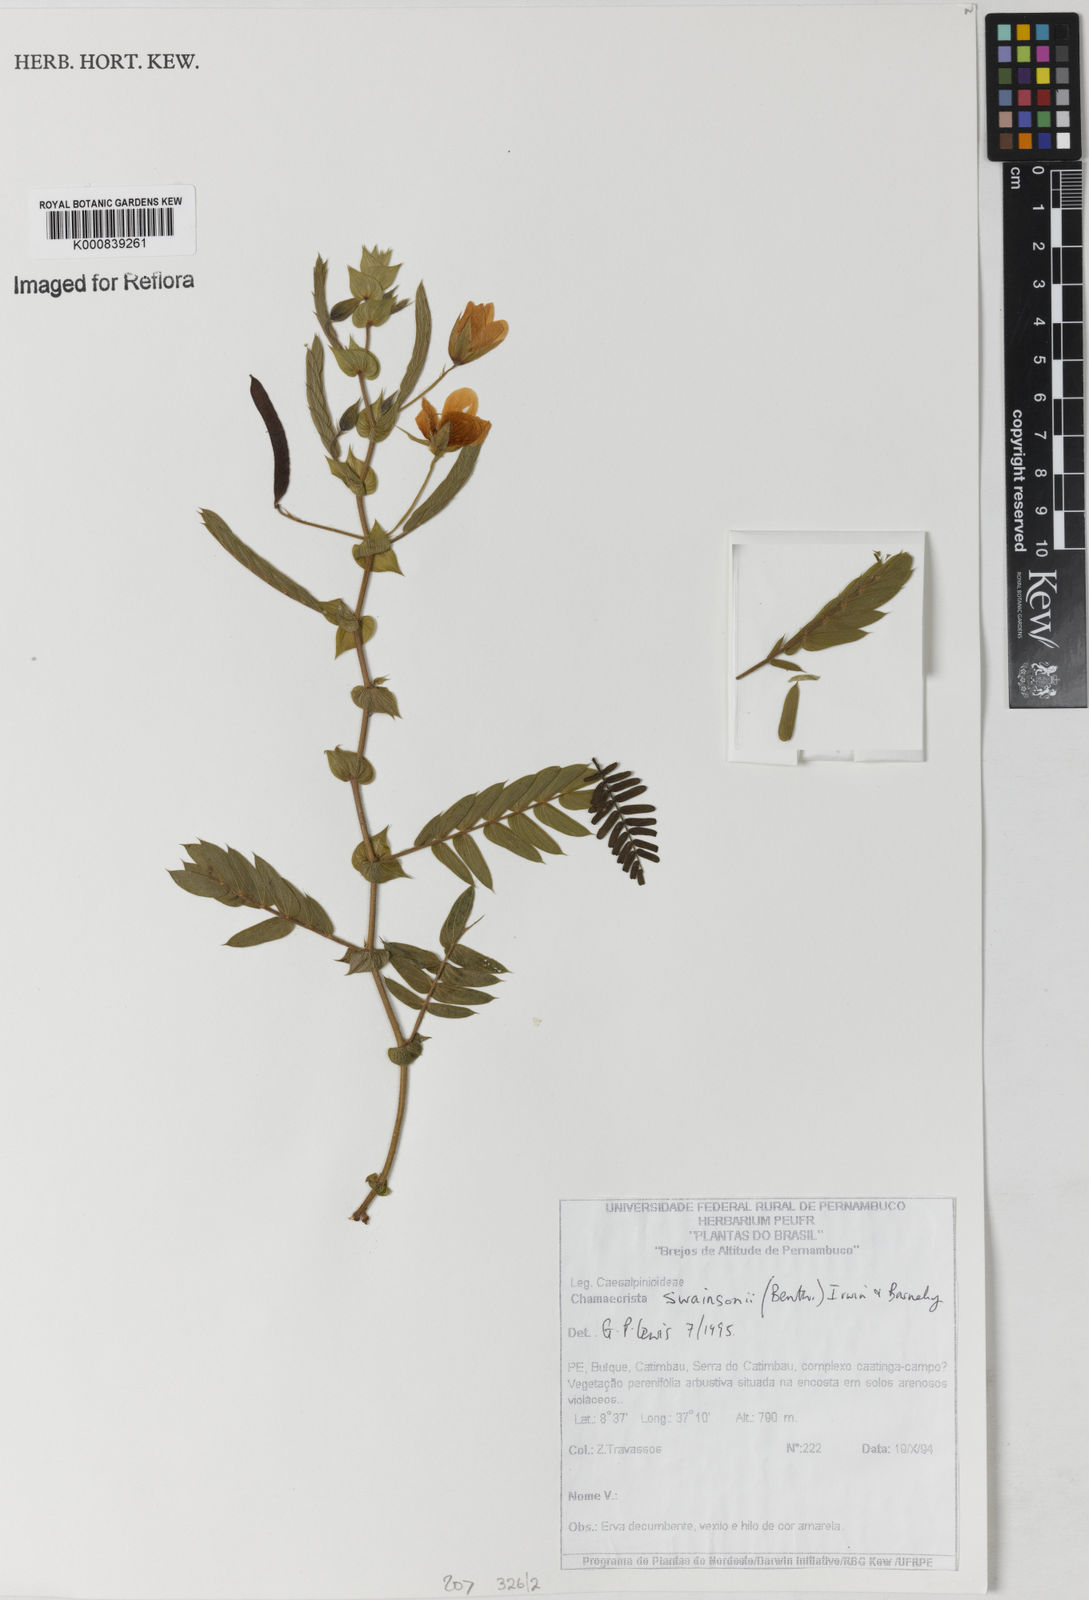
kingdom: Plantae
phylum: Tracheophyta
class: Magnoliopsida
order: Fabales
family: Fabaceae
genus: Chamaecrista
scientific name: Chamaecrista swainsonii
